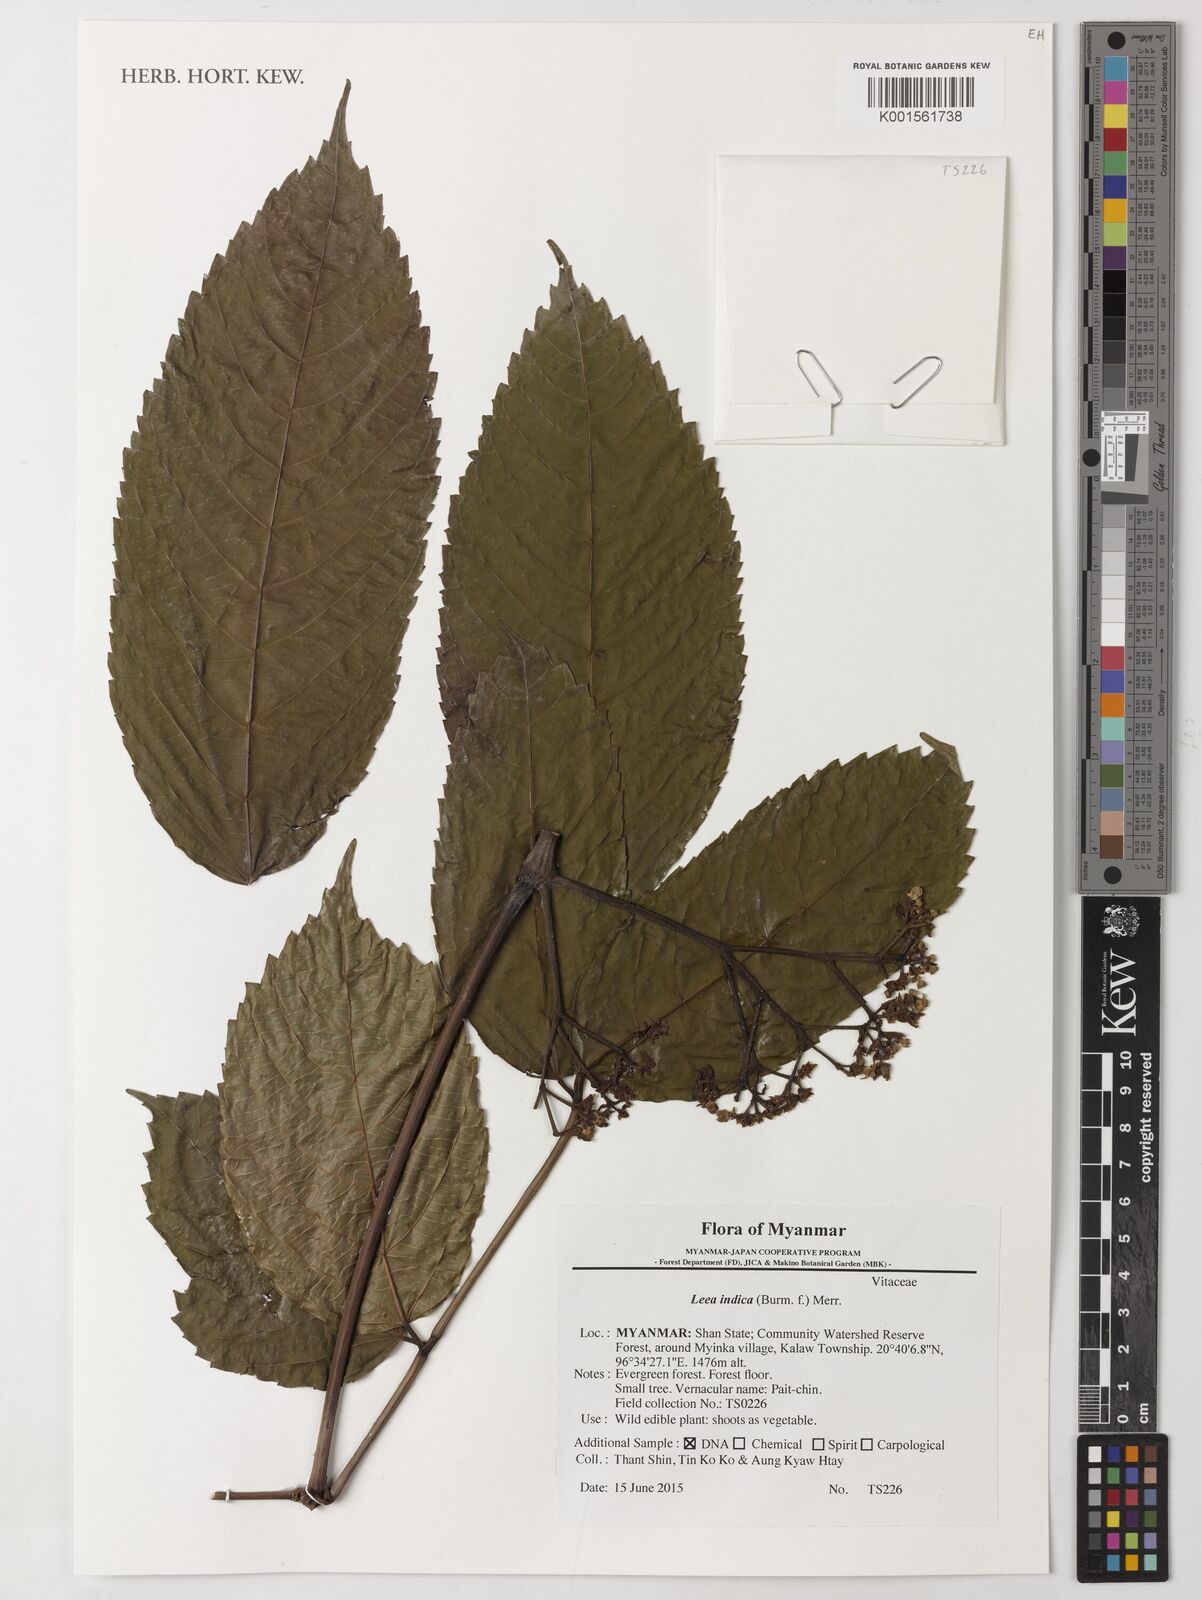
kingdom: Plantae
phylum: Tracheophyta
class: Magnoliopsida
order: Vitales
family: Vitaceae
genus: Leea
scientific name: Leea indica
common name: Bandicoot-berry
